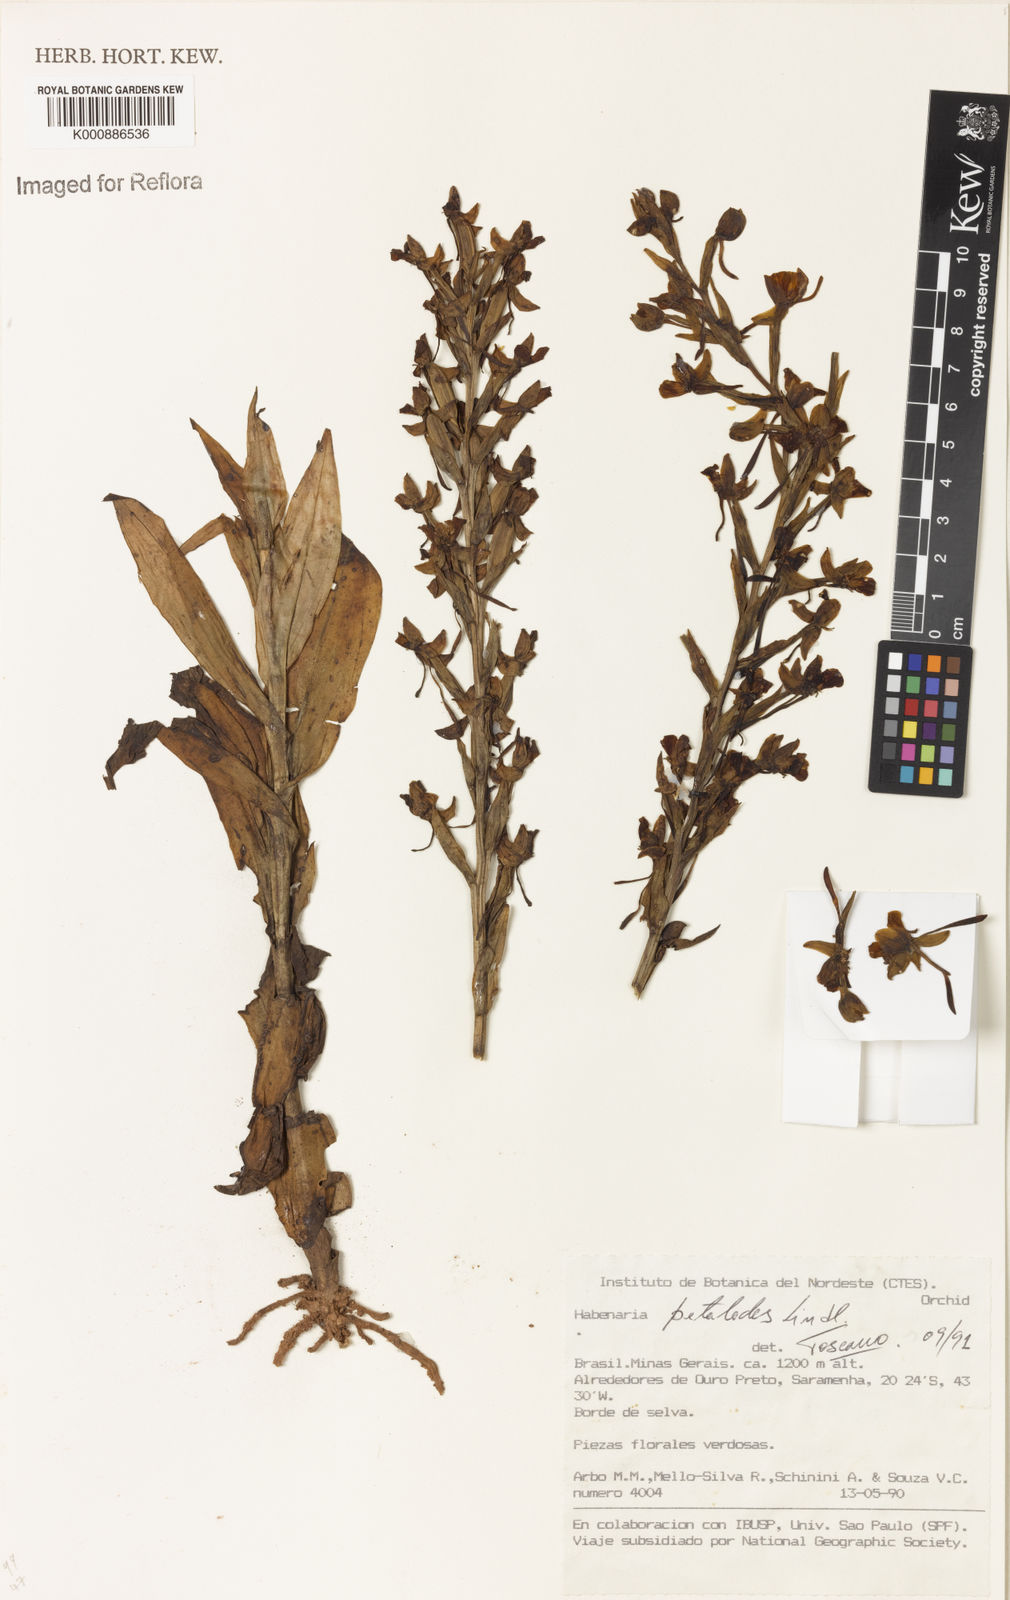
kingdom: Plantae
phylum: Tracheophyta
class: Liliopsida
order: Asparagales
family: Orchidaceae
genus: Habenaria
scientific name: Habenaria petalodes
